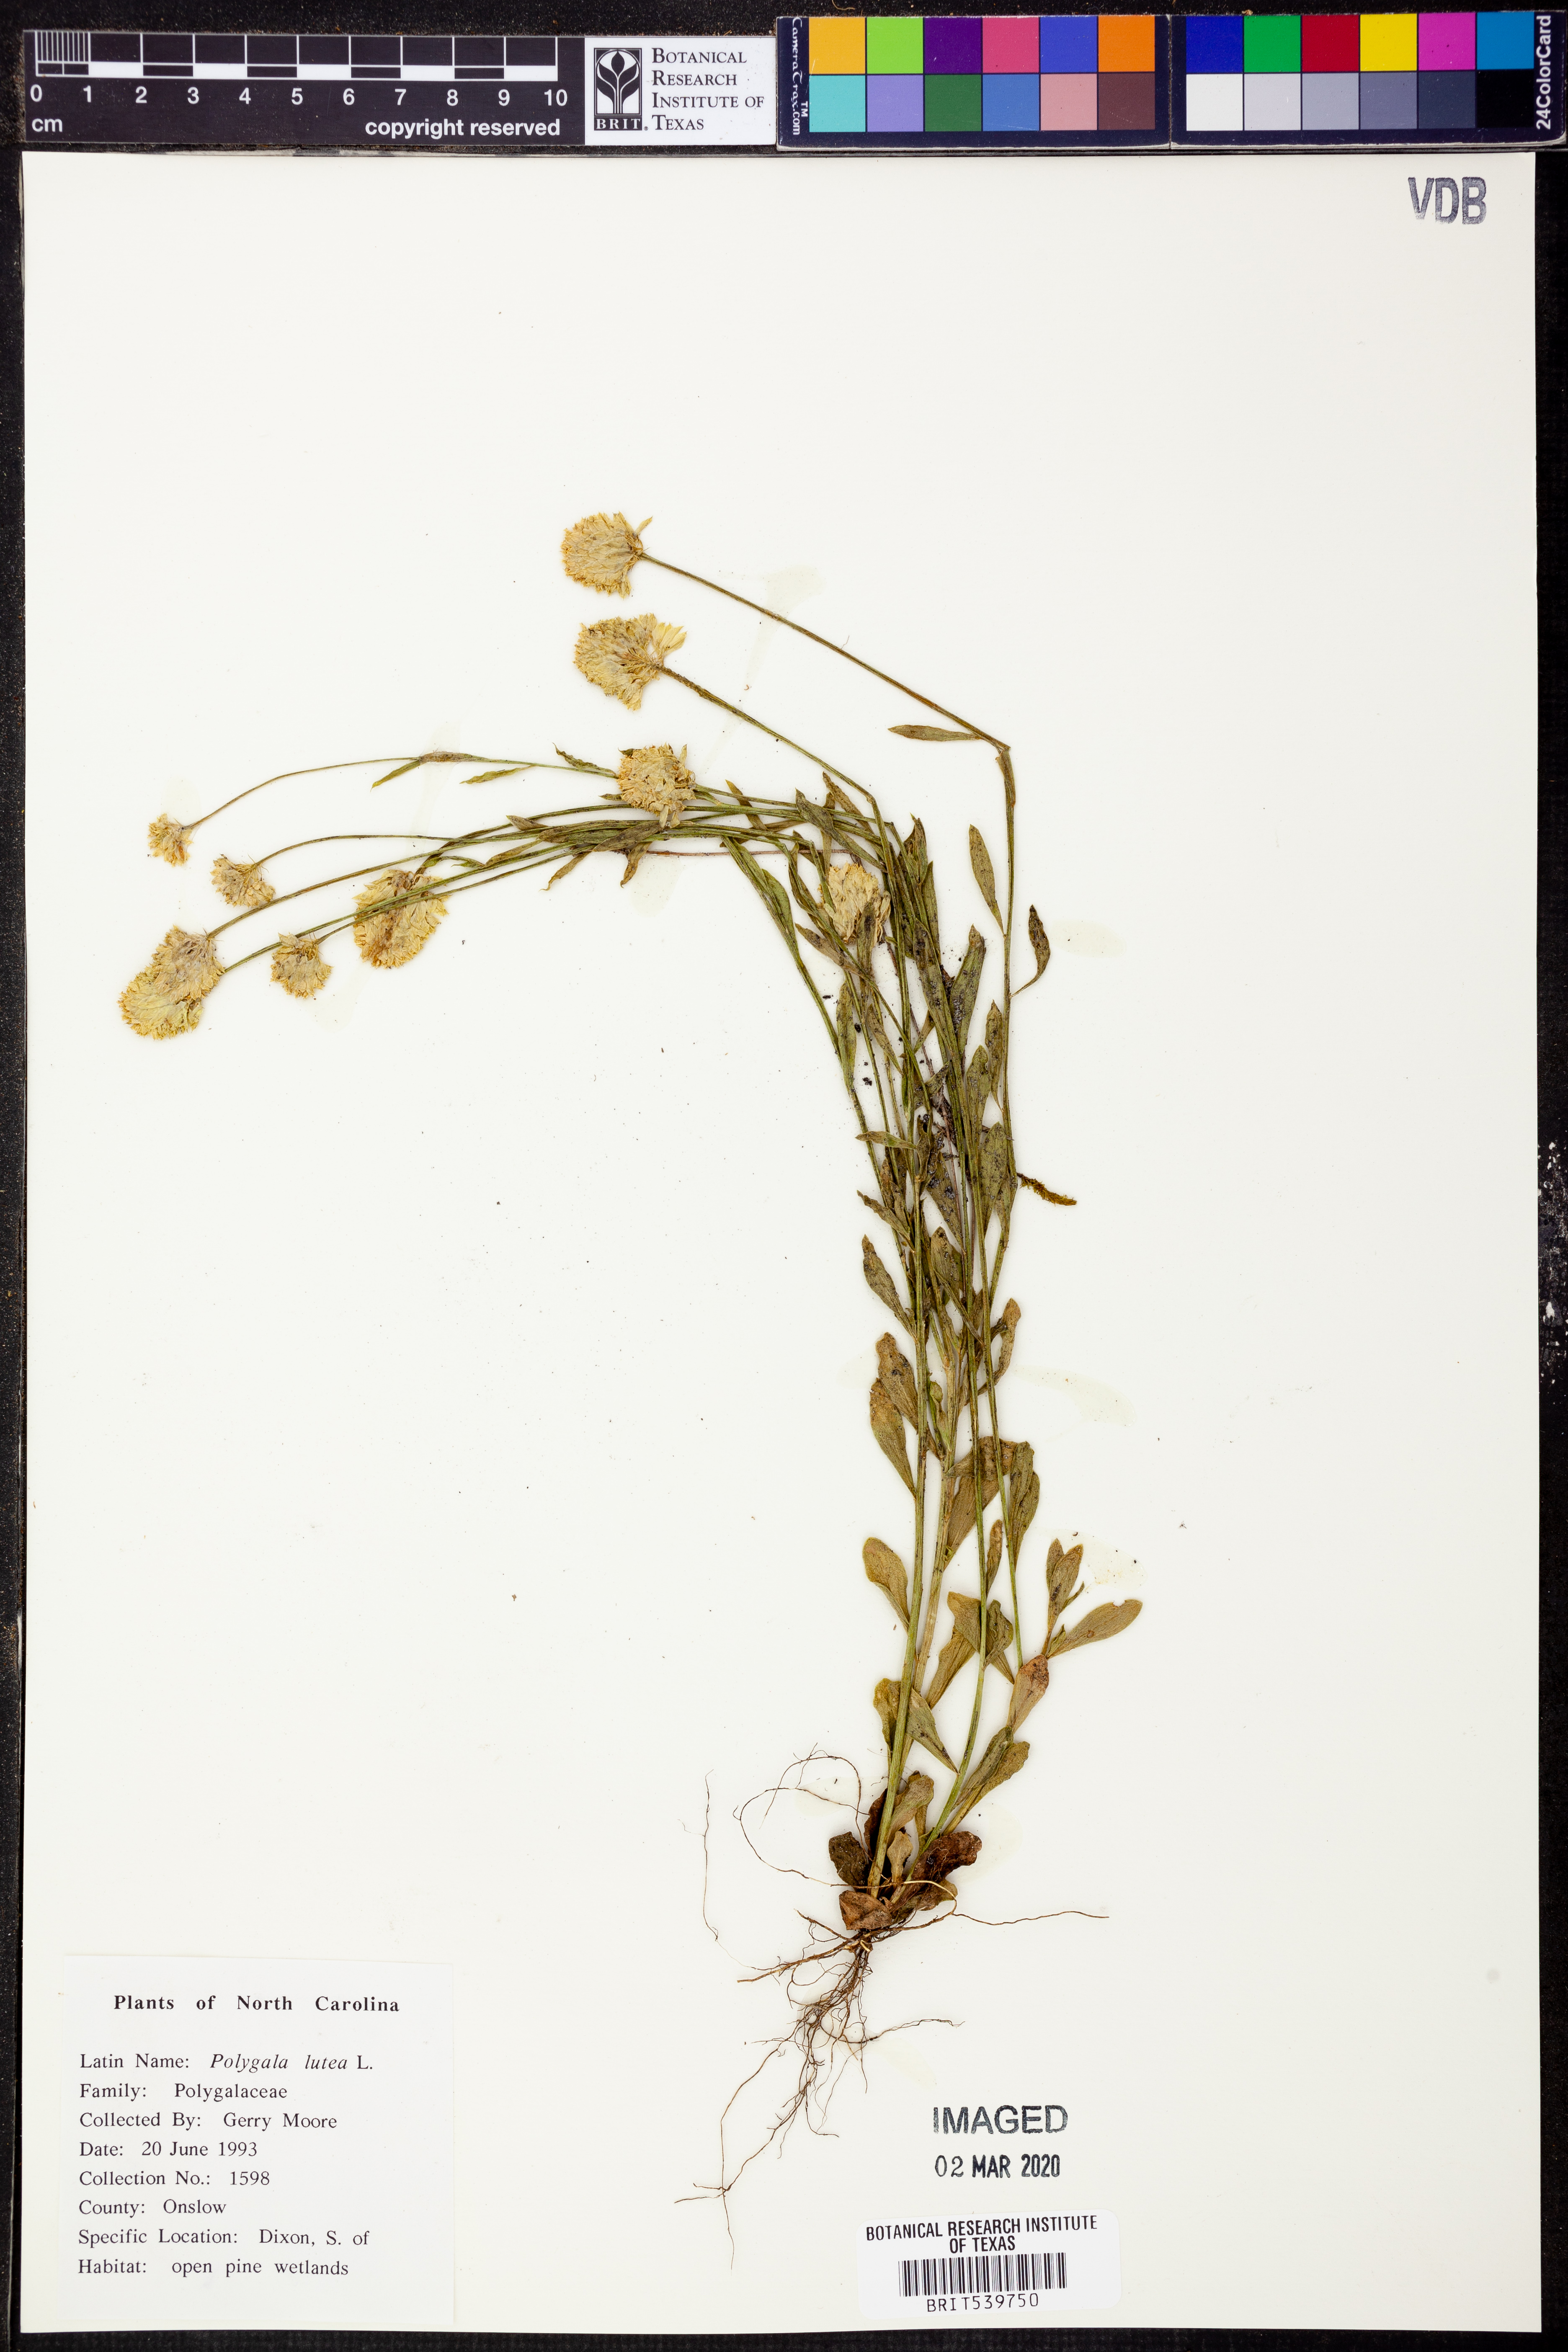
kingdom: Plantae
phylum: Tracheophyta
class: Magnoliopsida
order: Fabales
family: Polygalaceae
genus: Polygala
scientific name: Polygala lutea
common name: Orange milkwort
